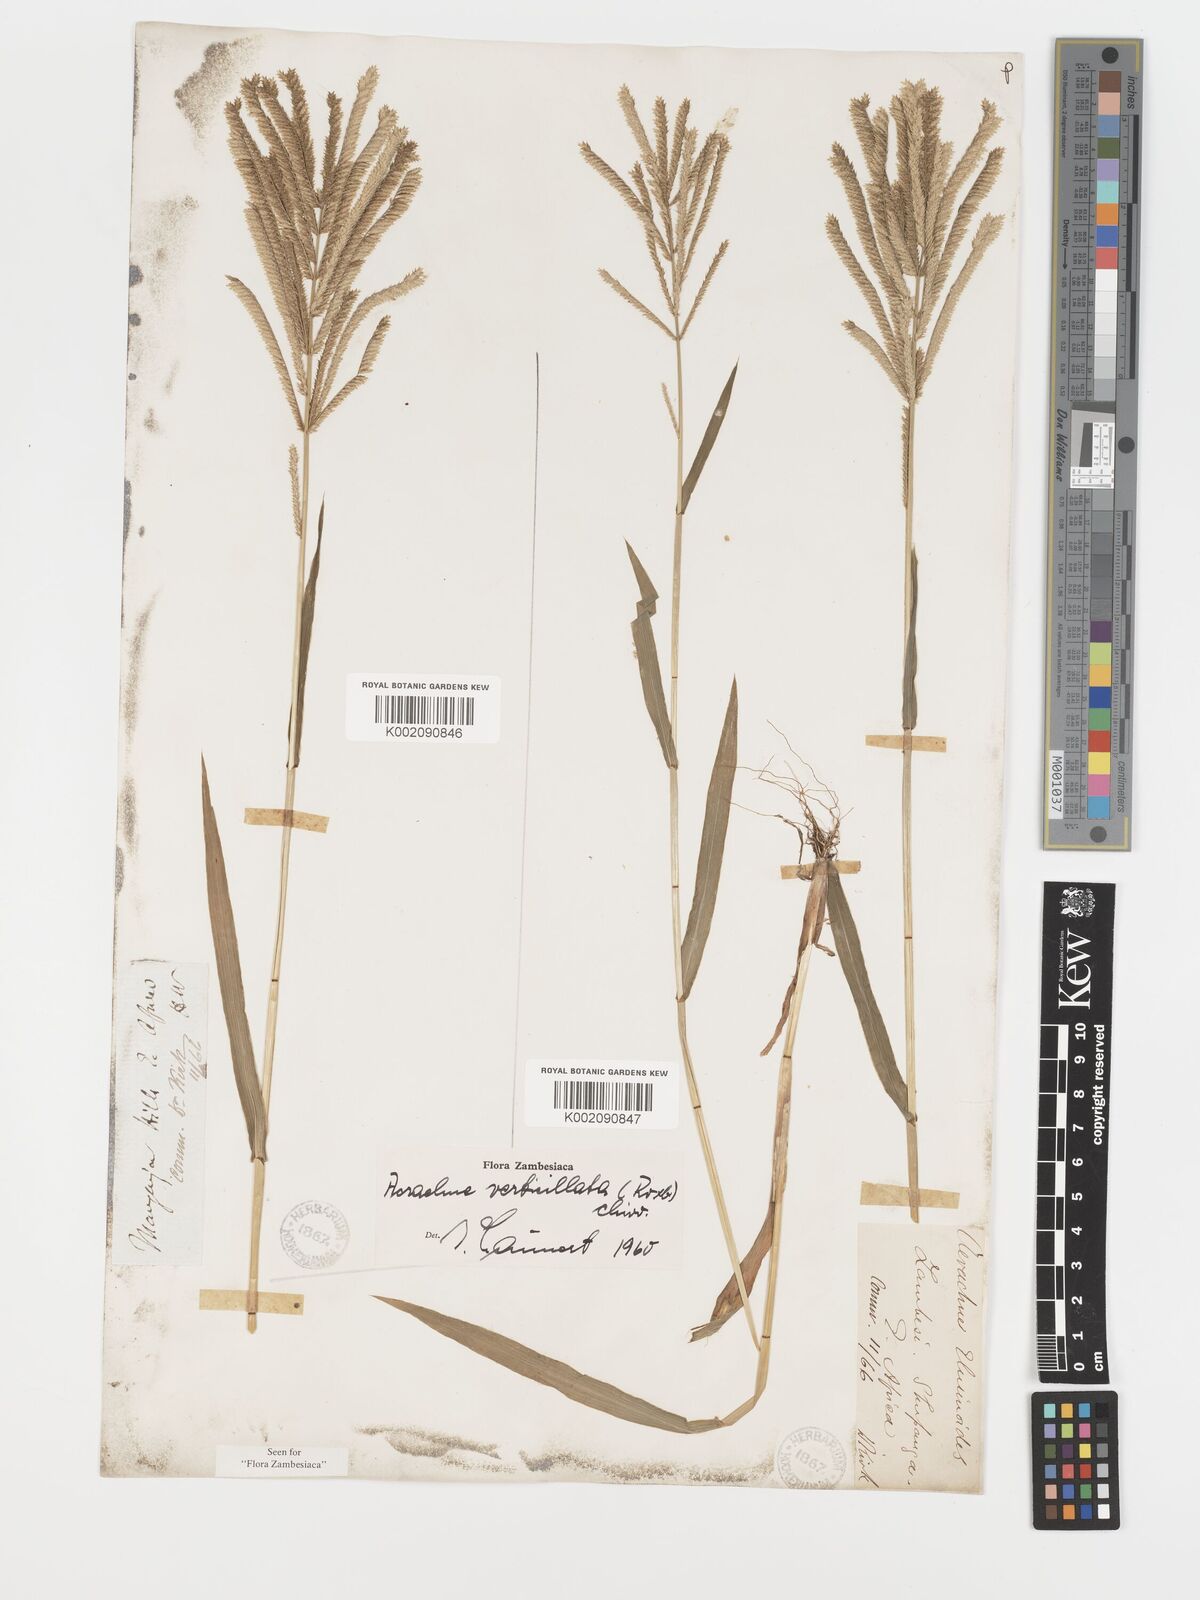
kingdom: Plantae
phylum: Tracheophyta
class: Liliopsida
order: Poales
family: Poaceae
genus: Acrachne
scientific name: Acrachne racemosa
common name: Goosegrass
